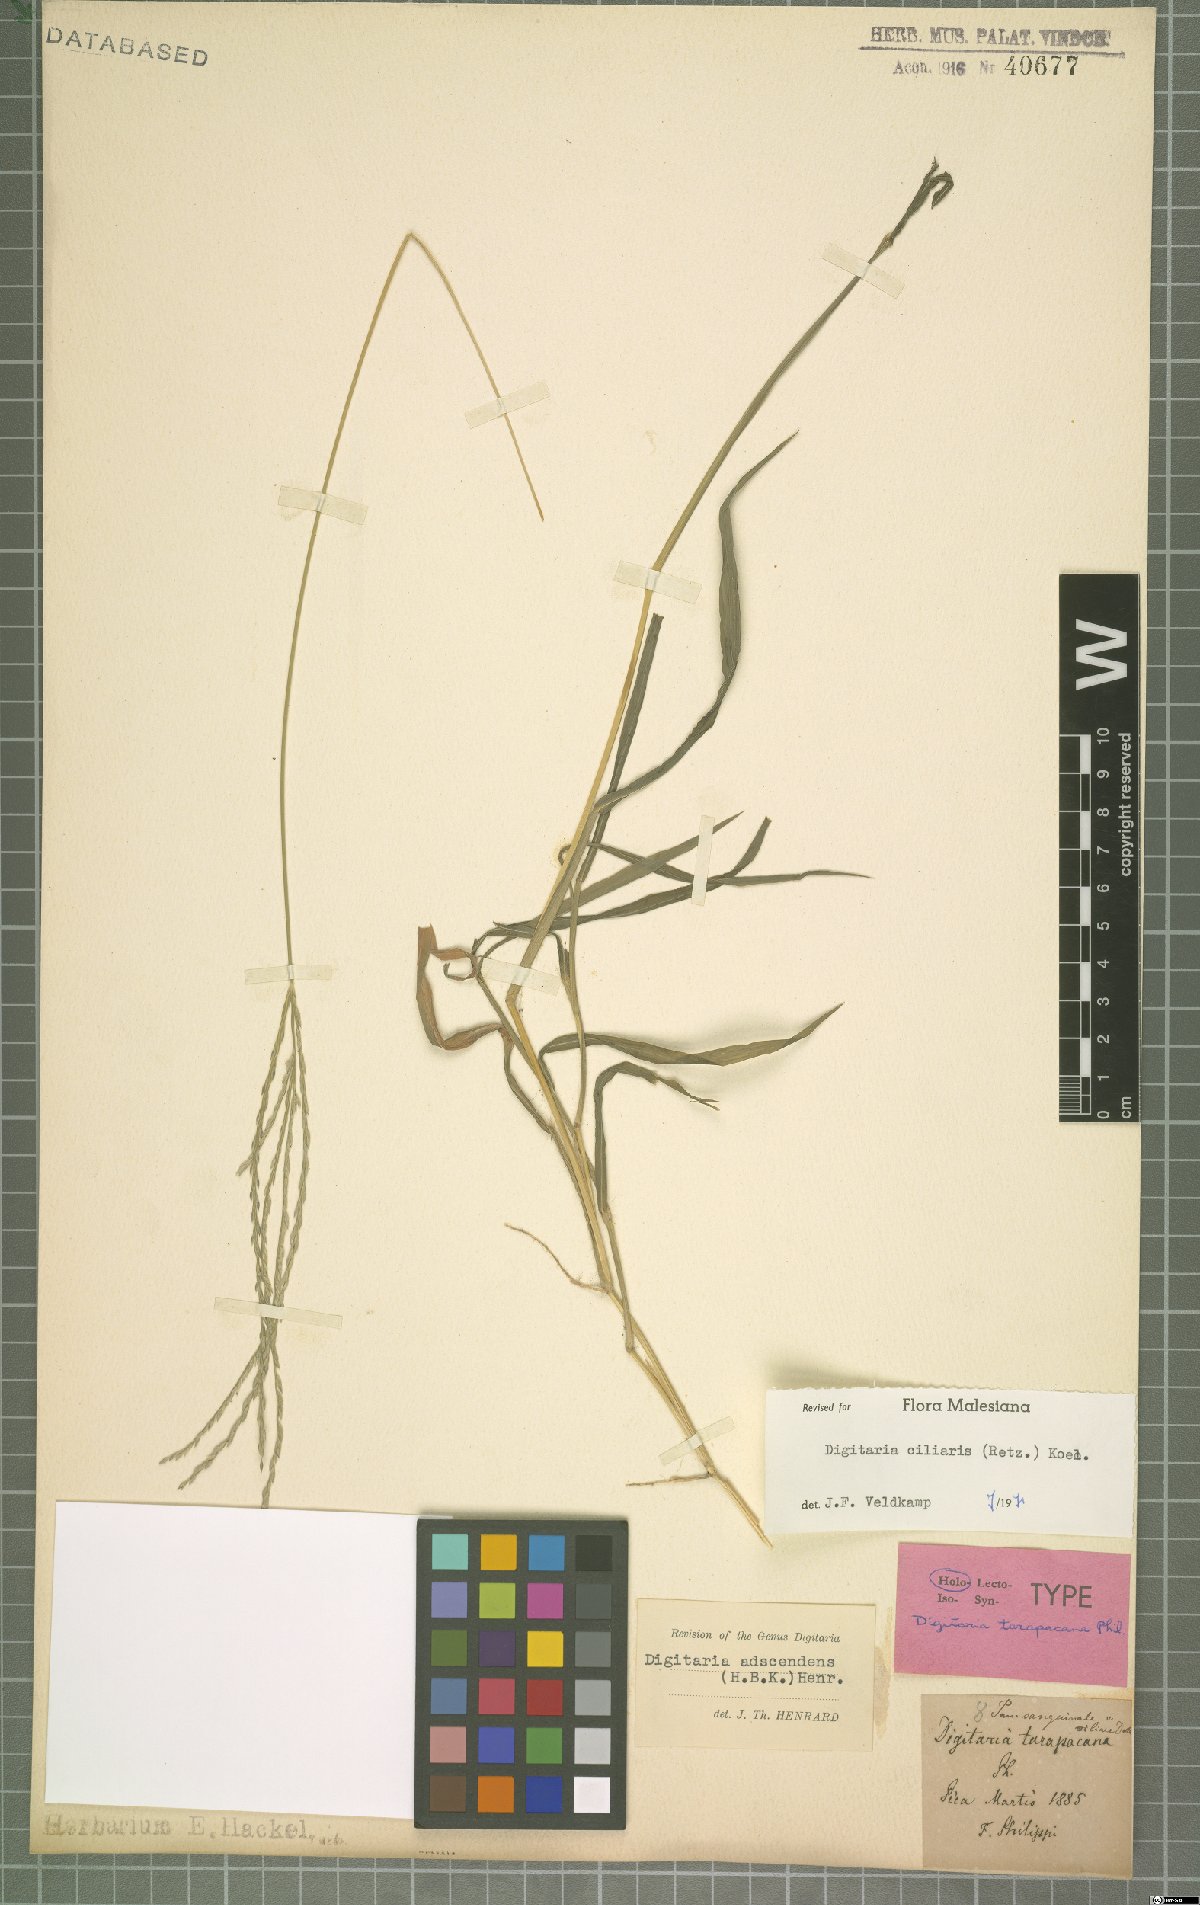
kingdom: Plantae
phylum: Tracheophyta
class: Liliopsida
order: Poales
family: Poaceae
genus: Digitaria
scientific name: Digitaria ciliaris
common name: Tropical finger-grass
